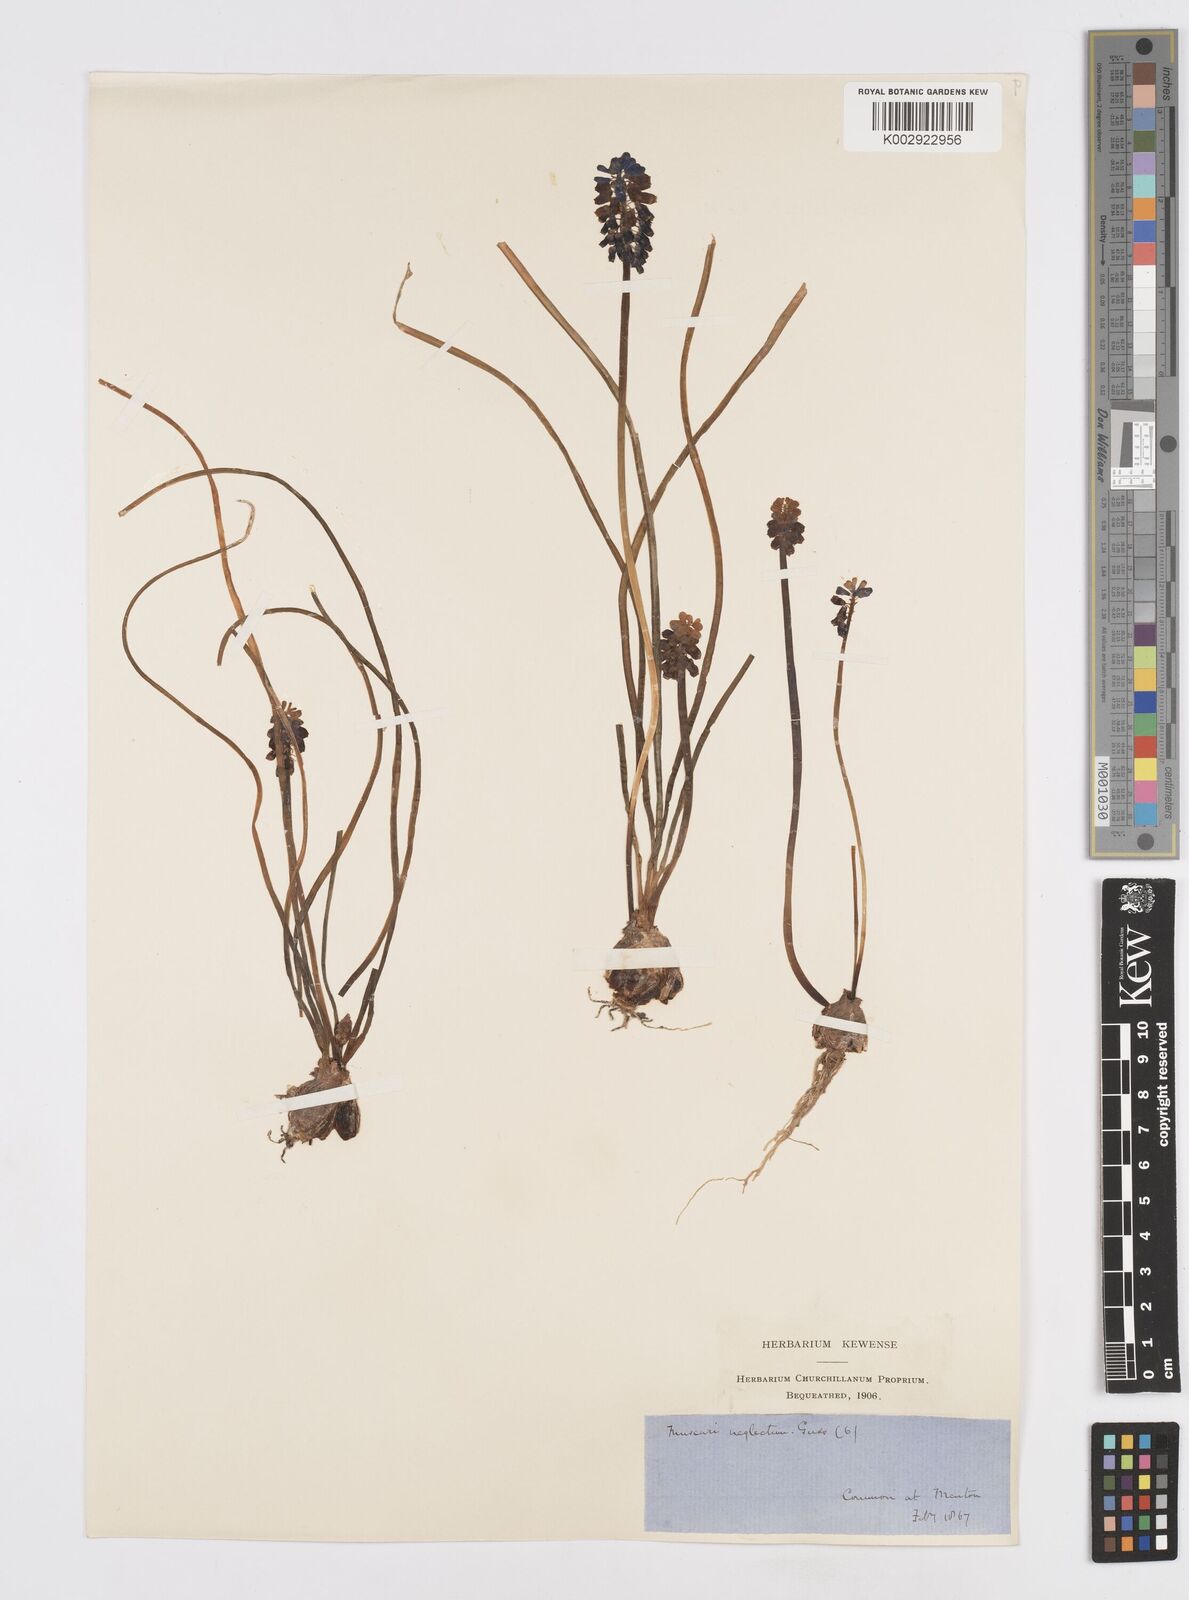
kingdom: Plantae
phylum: Tracheophyta
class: Liliopsida
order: Asparagales
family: Asparagaceae
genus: Muscari
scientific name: Muscari neglectum
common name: Grape-hyacinth
